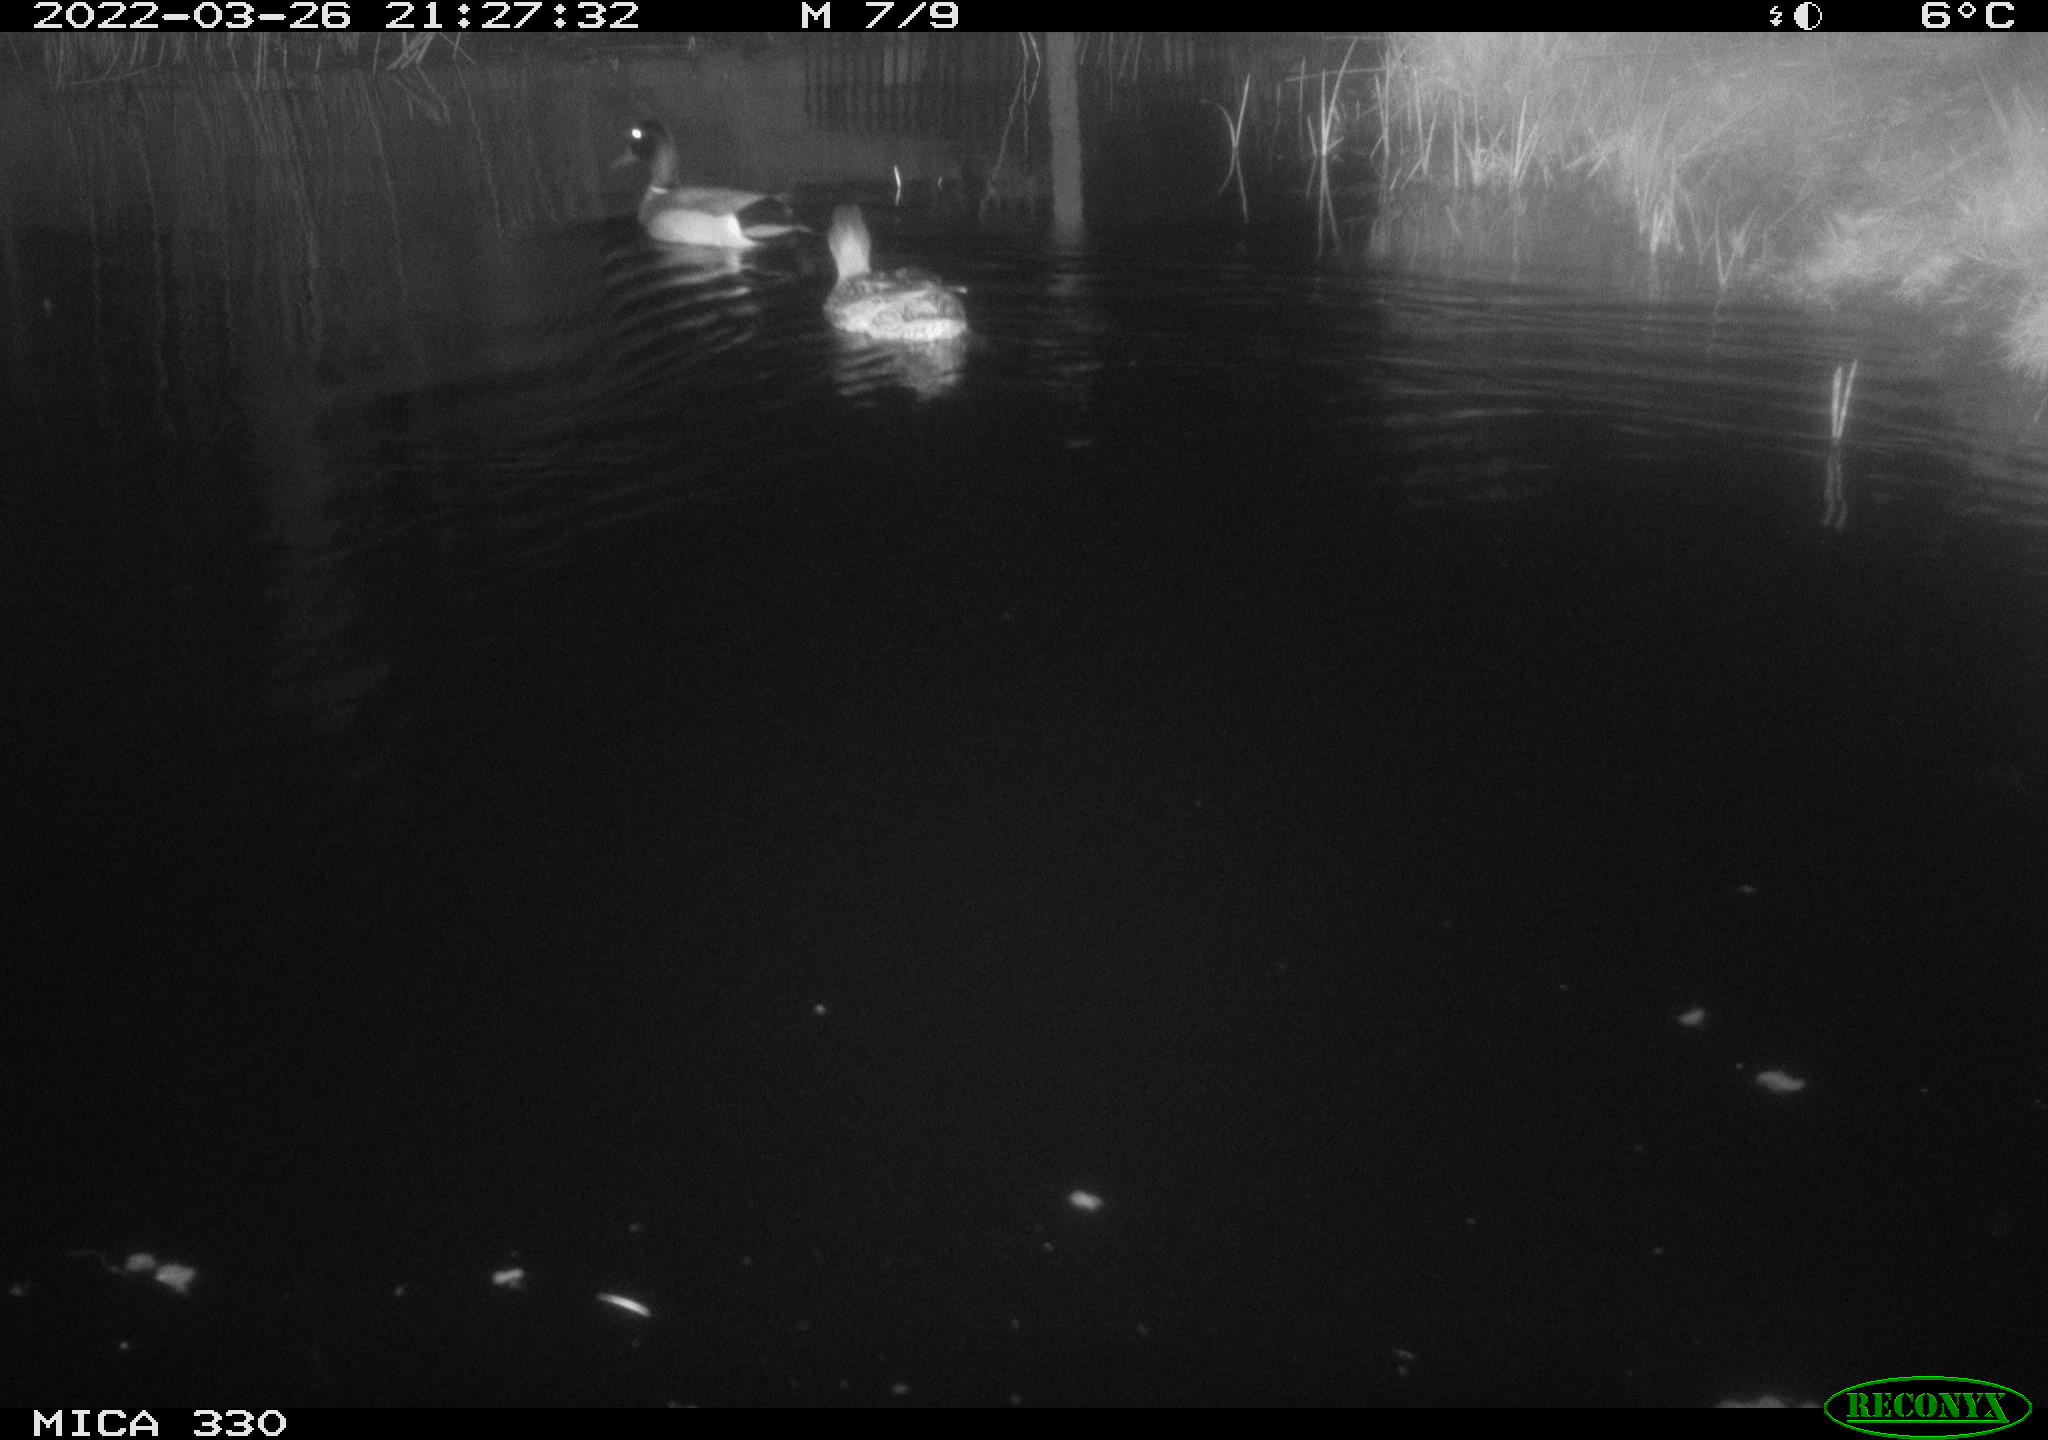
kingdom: Animalia
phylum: Chordata
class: Aves
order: Anseriformes
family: Anatidae
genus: Anas
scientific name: Anas platyrhynchos
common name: Mallard
